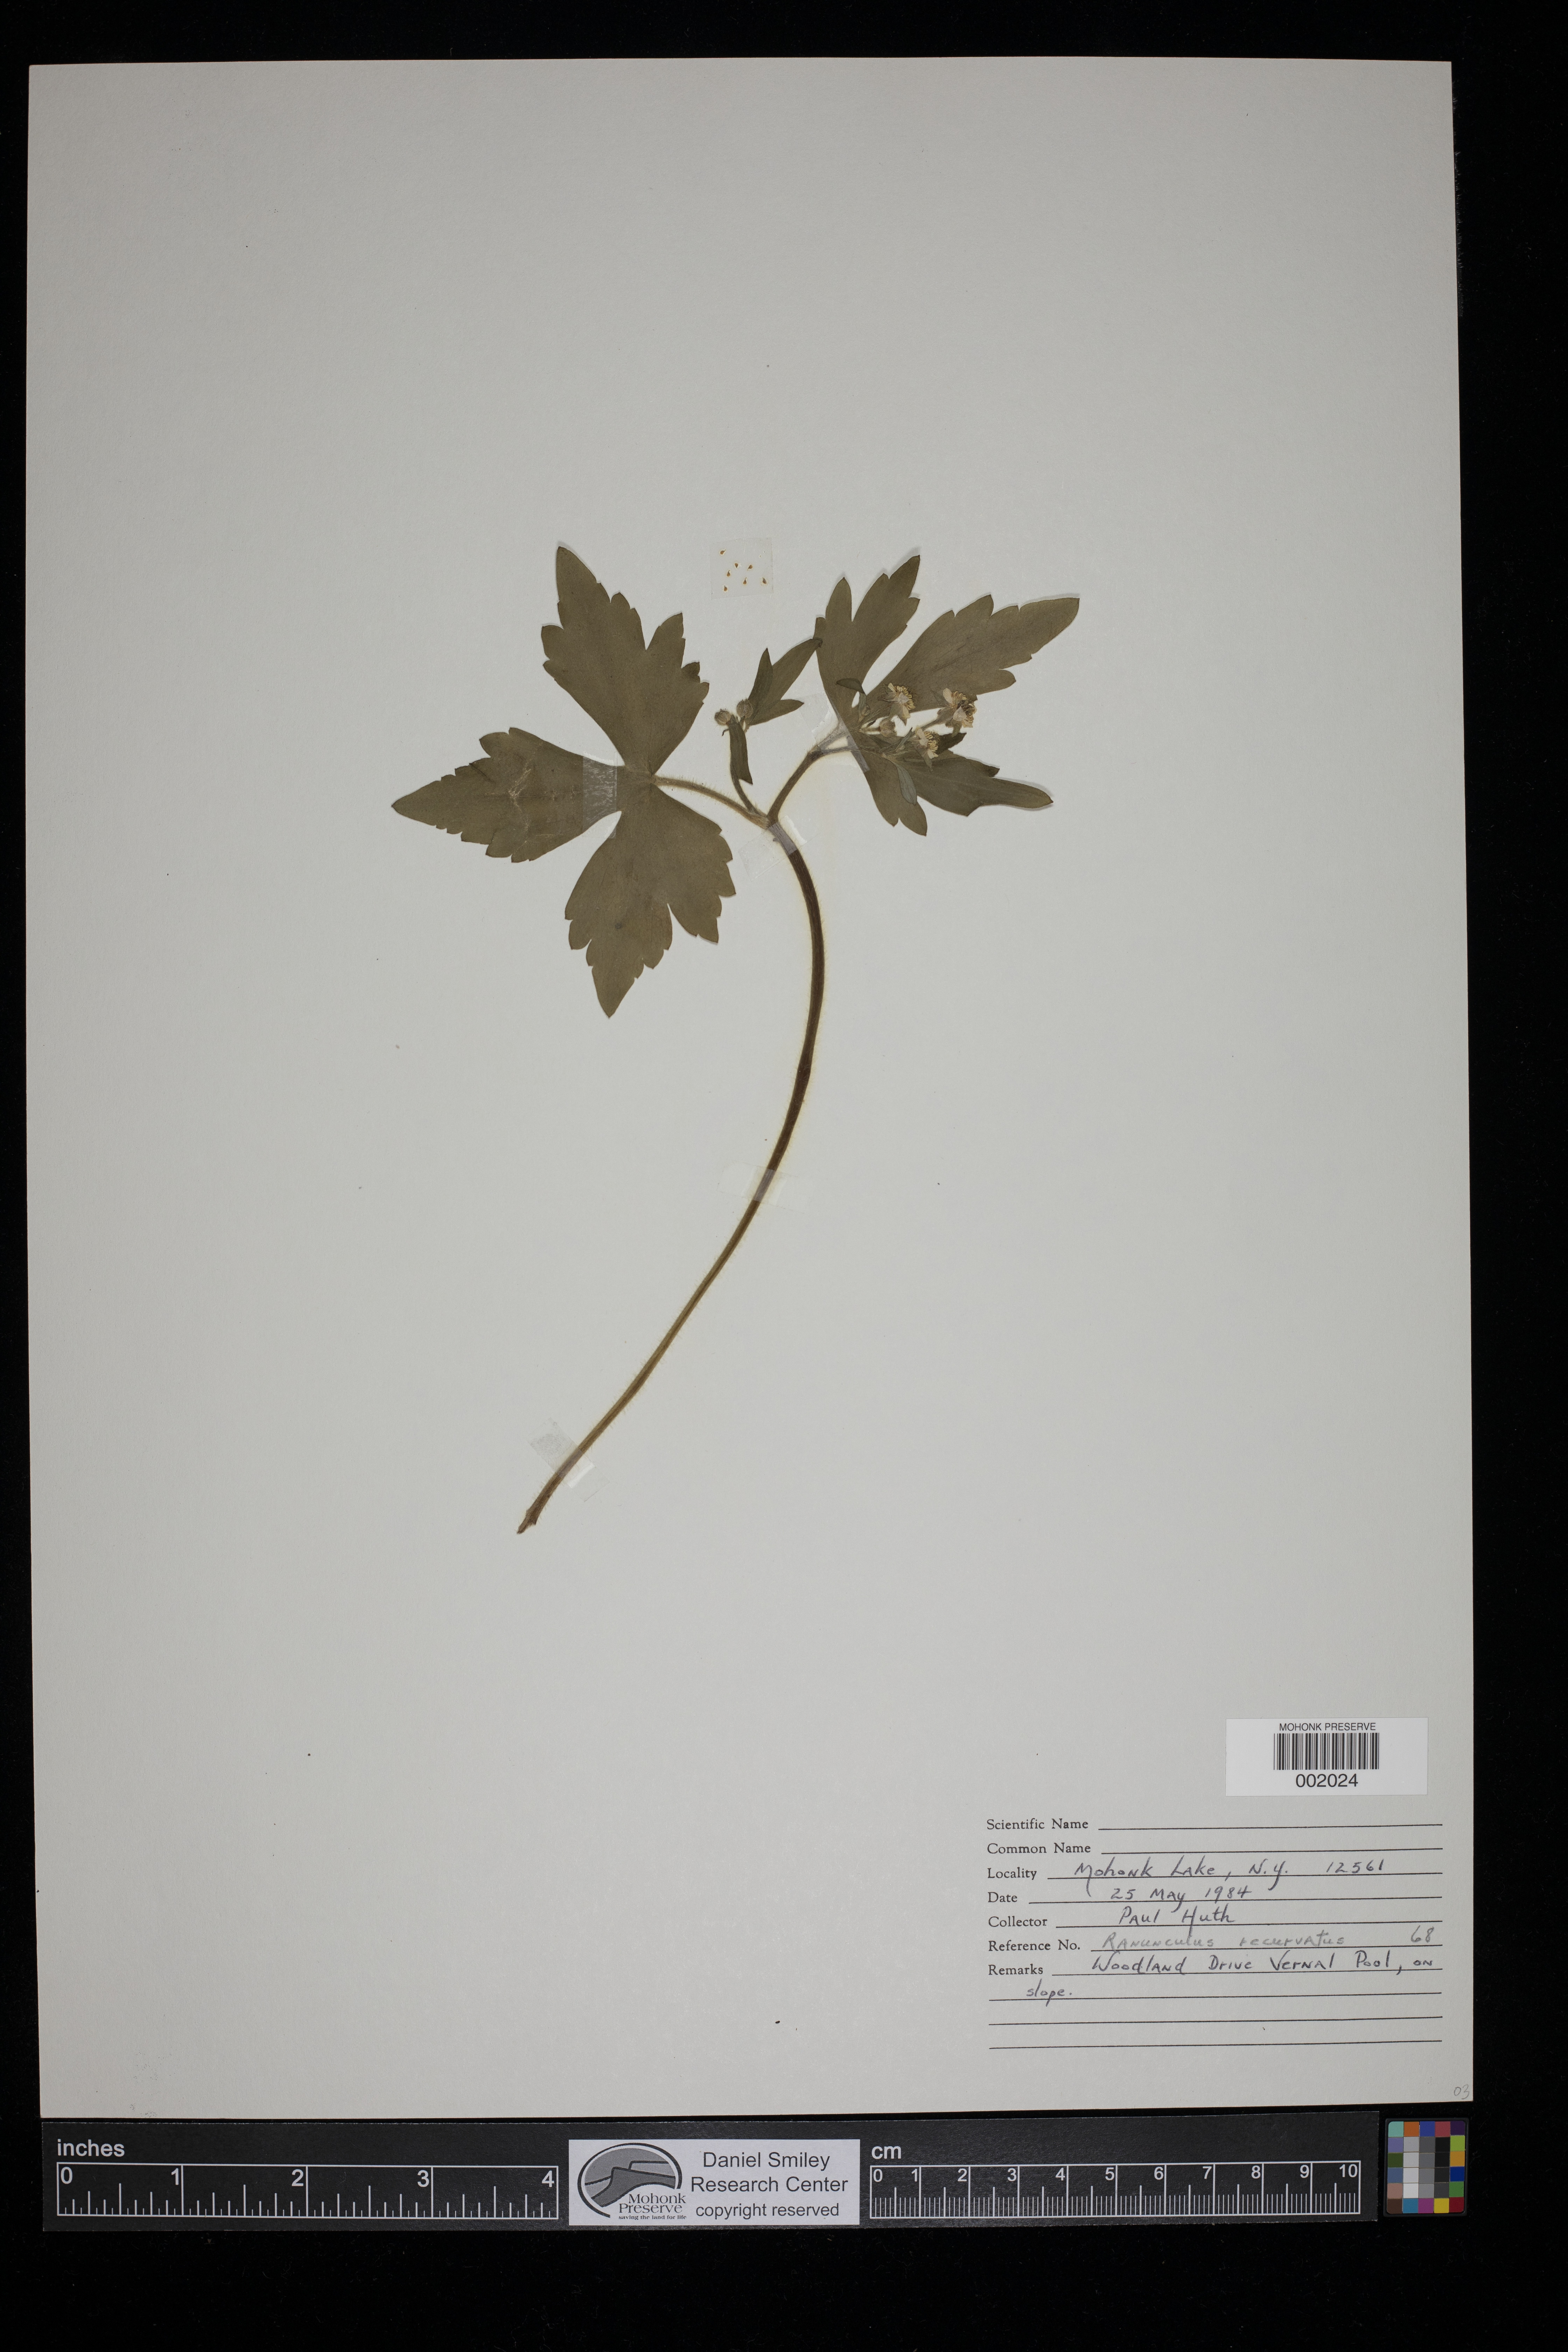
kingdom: Plantae
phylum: Tracheophyta
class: Magnoliopsida
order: Ranunculales
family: Ranunculaceae
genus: Ranunculus
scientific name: Ranunculus recurvatus
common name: Blisterwort
